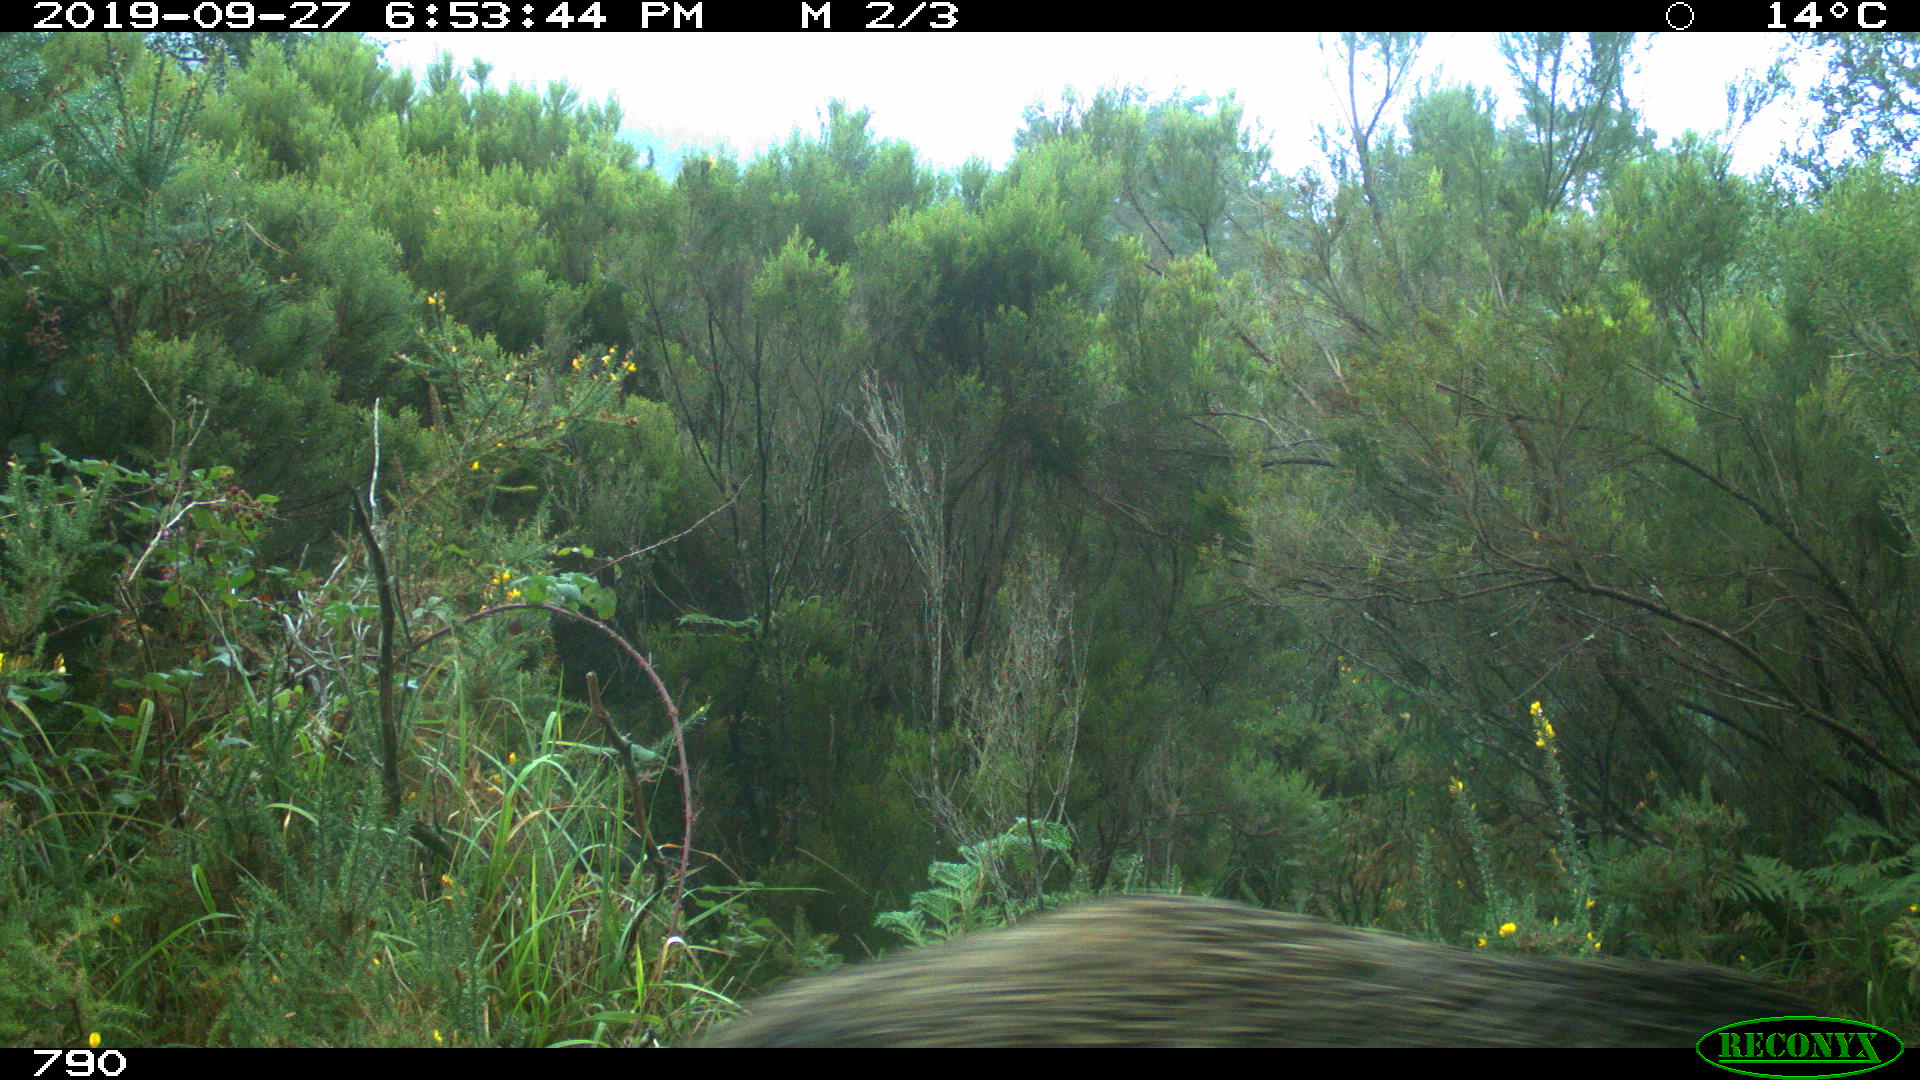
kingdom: Animalia
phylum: Chordata
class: Mammalia
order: Artiodactyla
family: Suidae
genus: Sus
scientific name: Sus scrofa
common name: Wild boar
